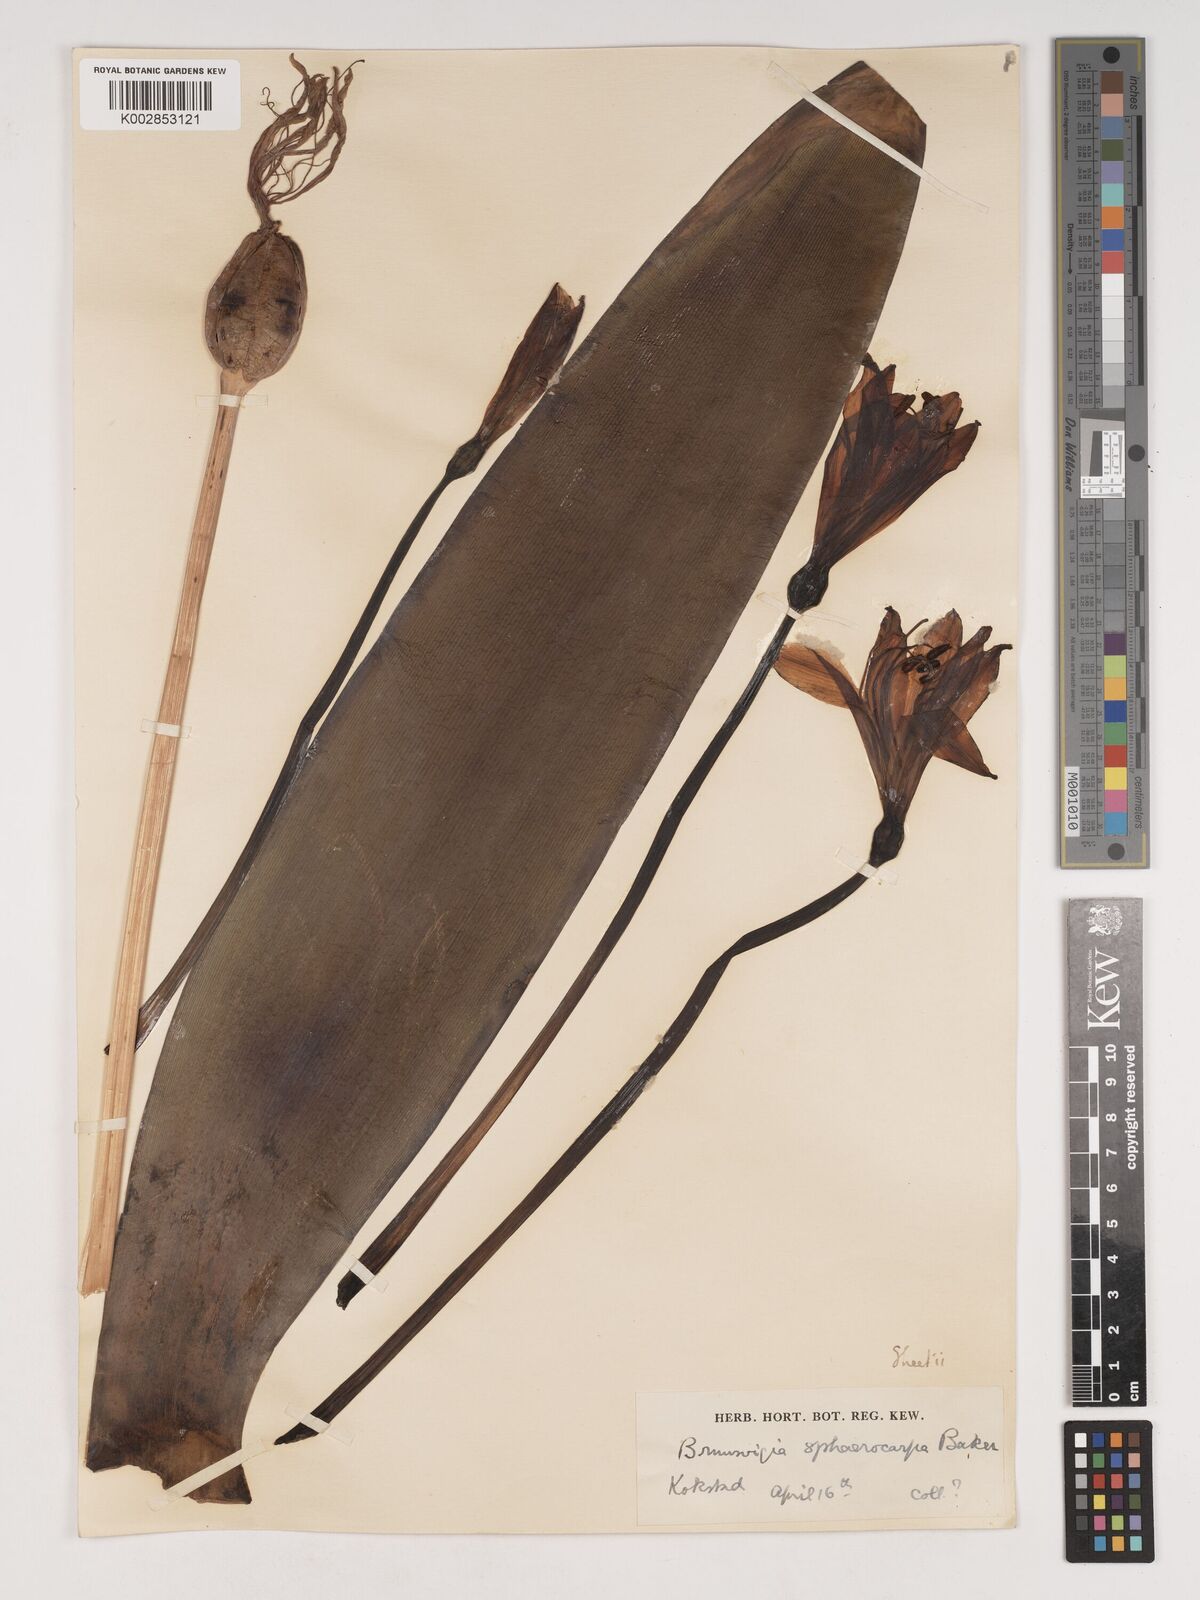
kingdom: Plantae
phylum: Tracheophyta
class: Liliopsida
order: Asparagales
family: Amaryllidaceae
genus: Brunsvigia
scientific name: Brunsvigia grandiflora
